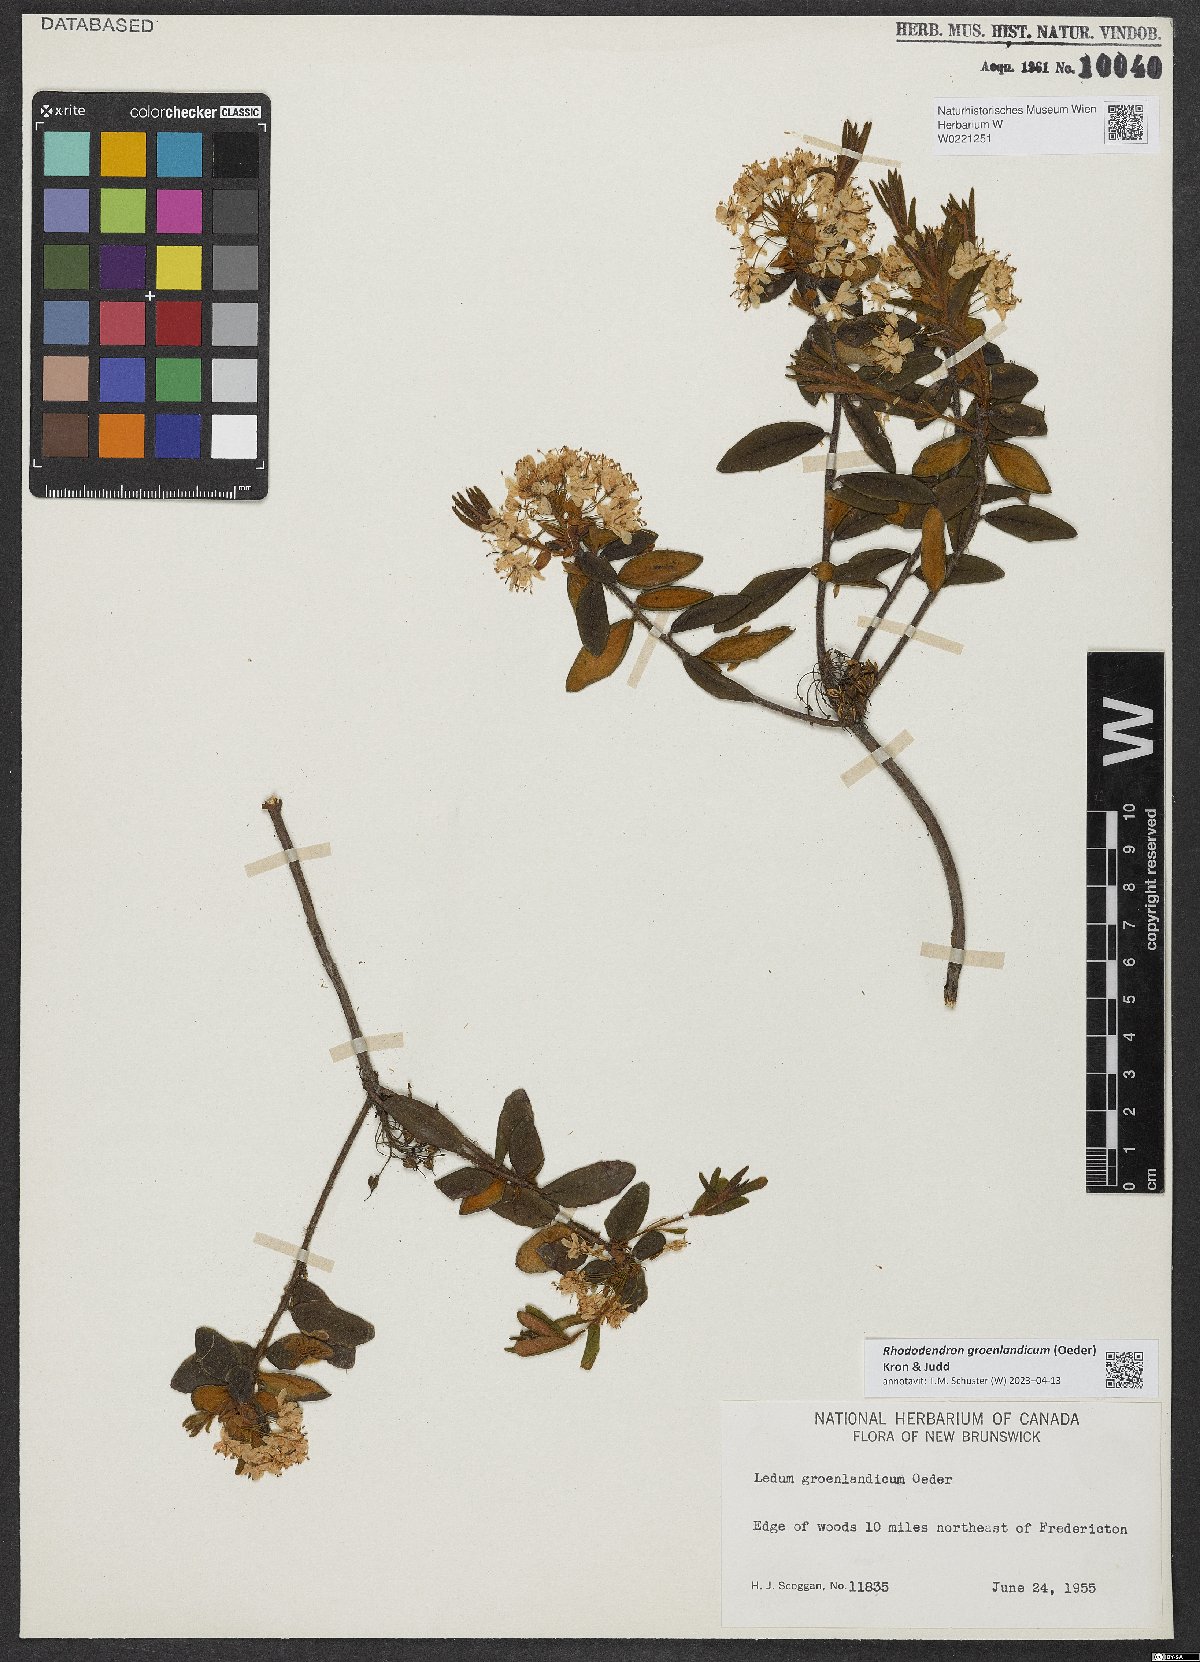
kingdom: Plantae
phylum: Tracheophyta
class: Magnoliopsida
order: Ericales
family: Ericaceae
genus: Rhododendron
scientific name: Rhododendron groenlandicum
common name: Bog labrador tea
